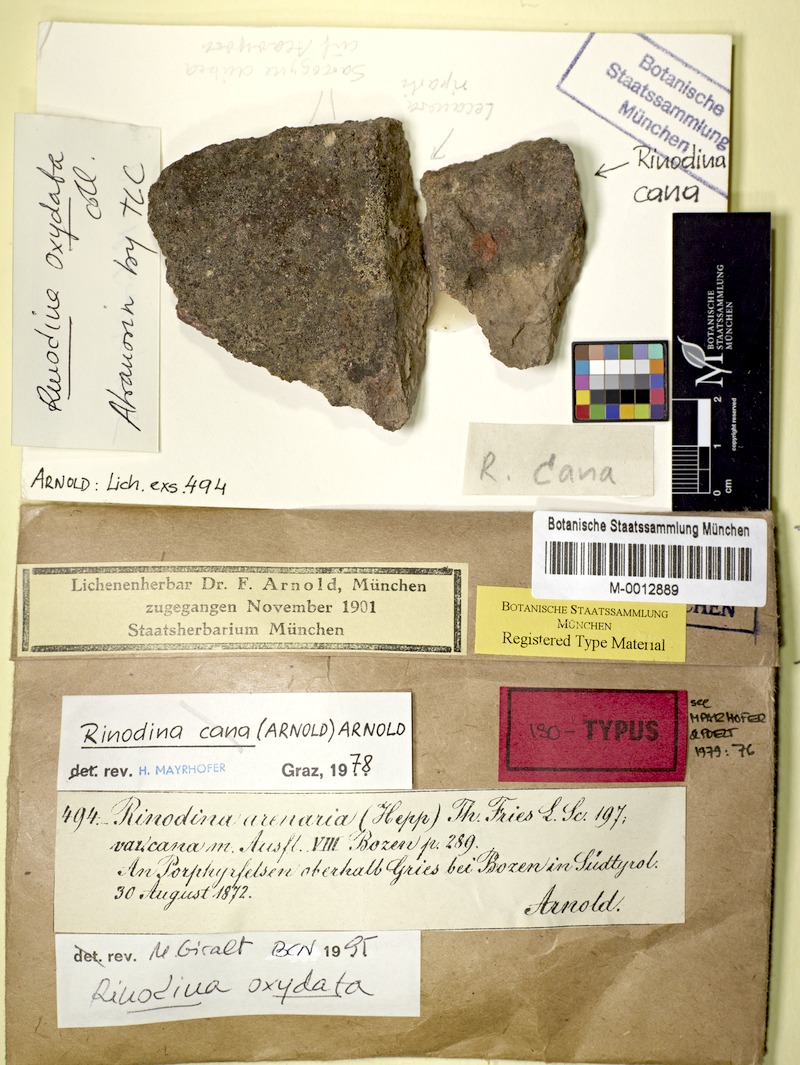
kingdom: Fungi
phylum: Ascomycota
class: Lecanoromycetes
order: Caliciales
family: Physciaceae
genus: Rinodina
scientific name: Rinodina cana
